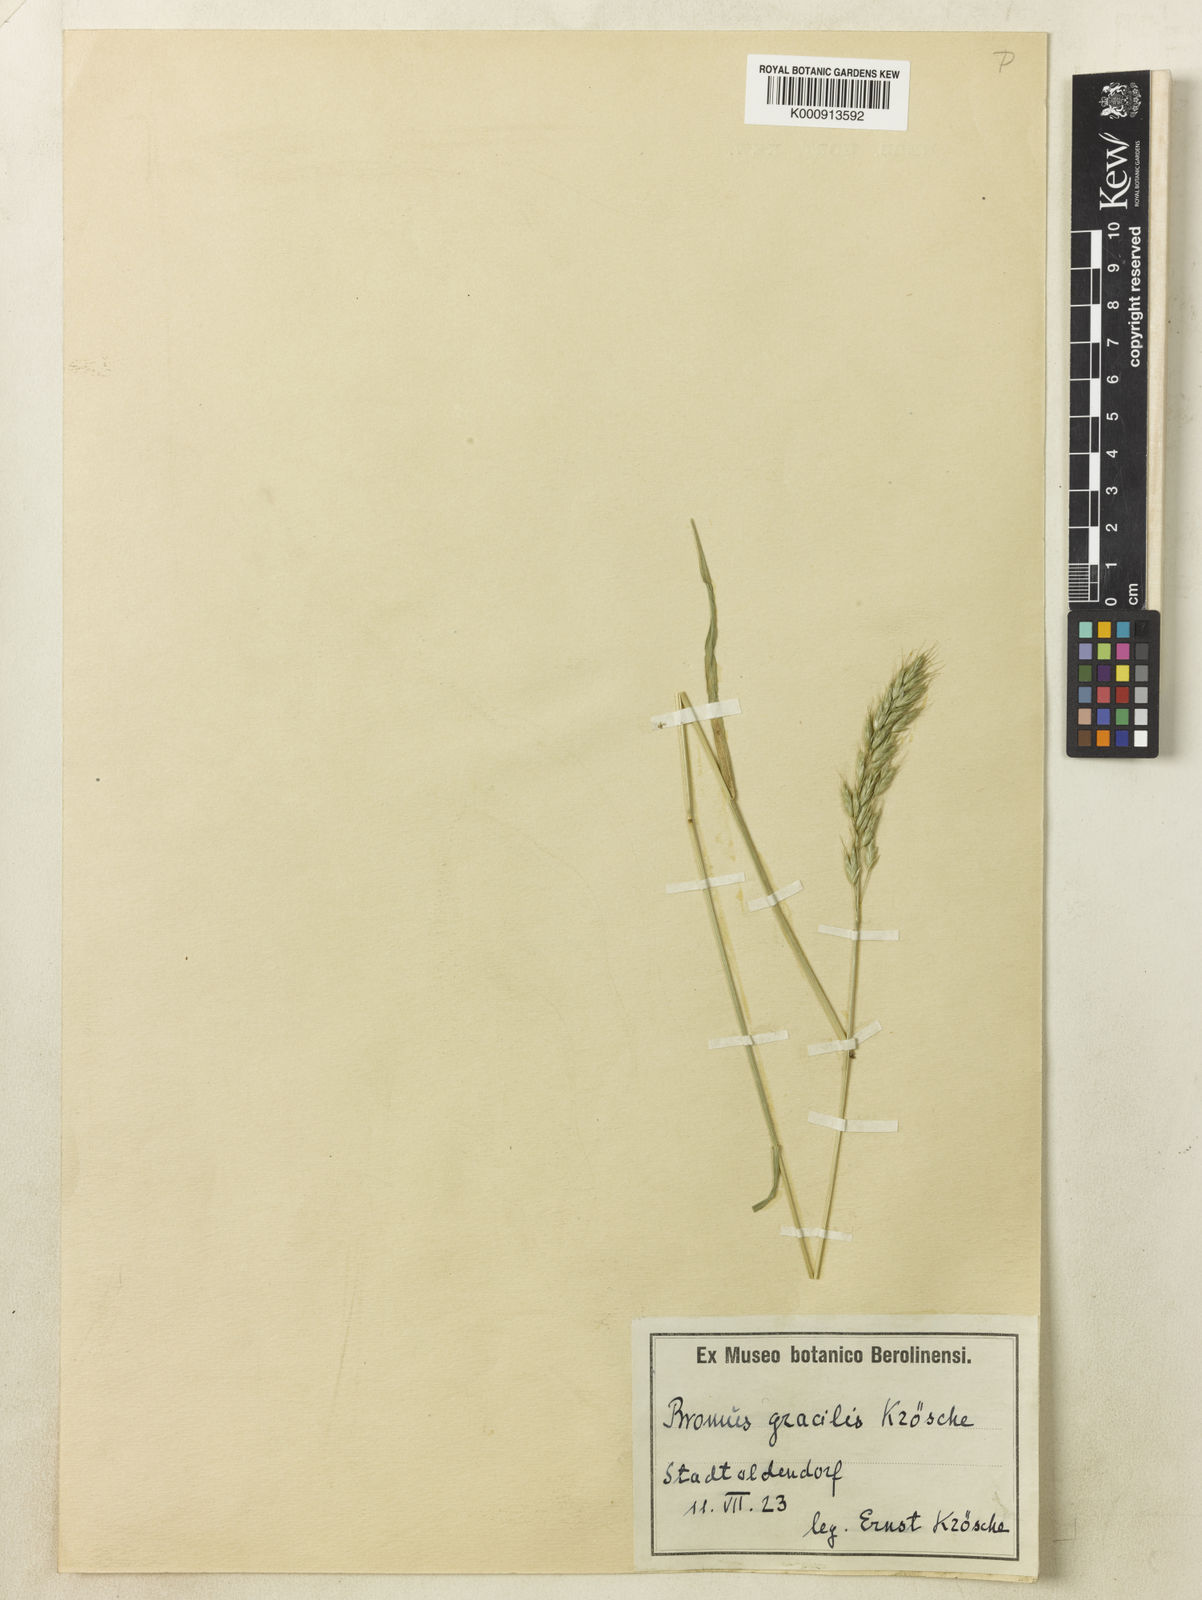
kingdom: Plantae
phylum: Tracheophyta
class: Liliopsida
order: Poales
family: Poaceae
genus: Bromus
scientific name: Bromus lepidus
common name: Slender soft-brome
